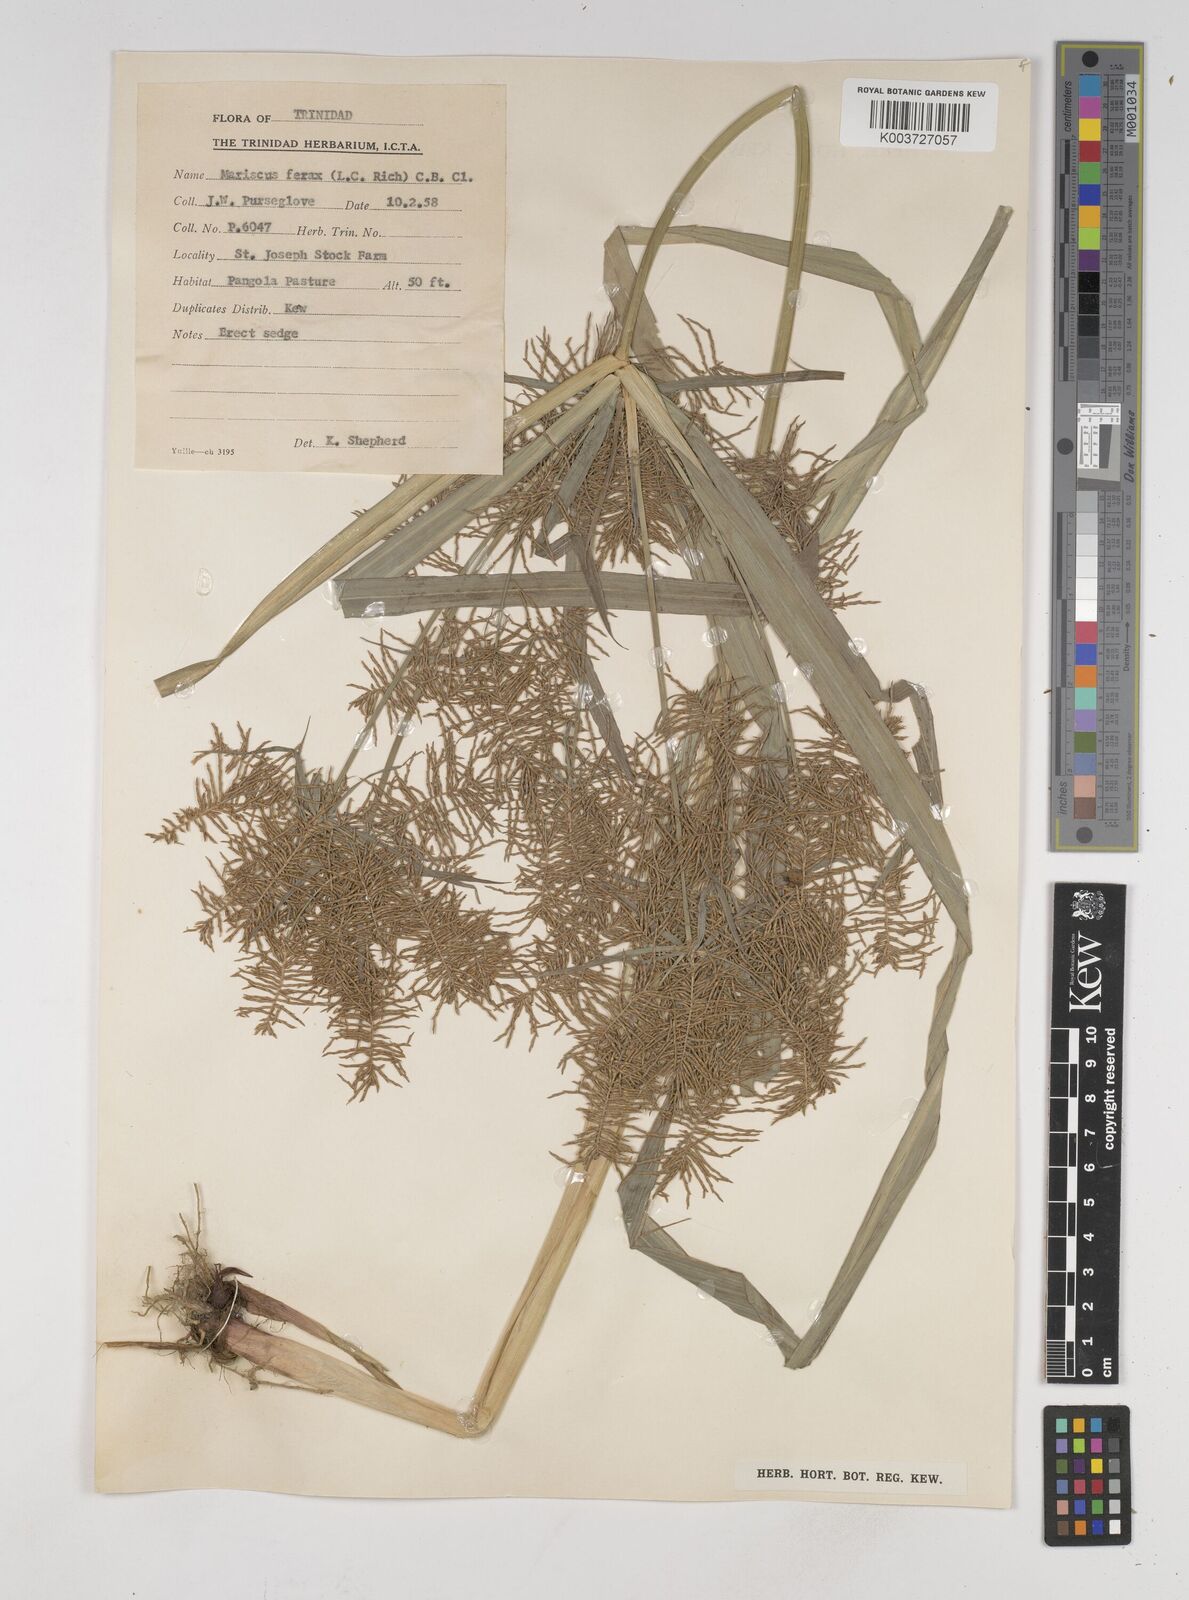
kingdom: Plantae
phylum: Tracheophyta
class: Liliopsida
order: Poales
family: Cyperaceae
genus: Cyperus
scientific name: Cyperus odoratus
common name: Fragrant flatsedge
